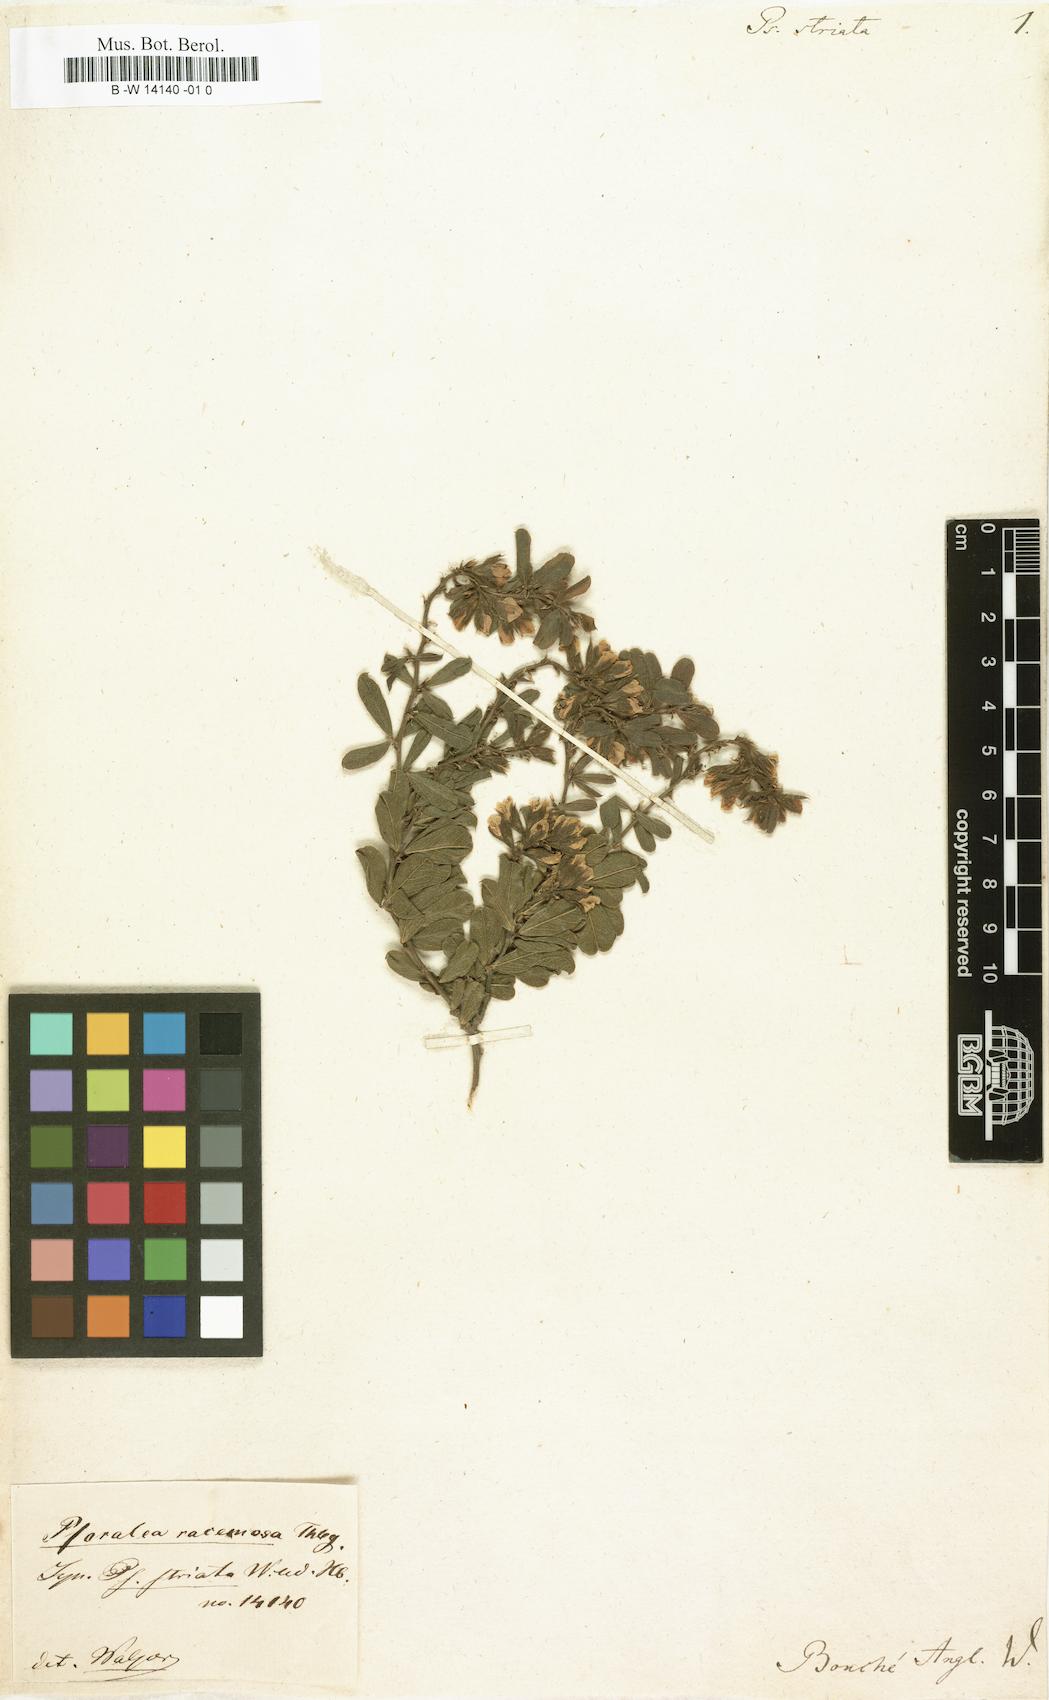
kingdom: Plantae
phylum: Tracheophyta
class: Magnoliopsida
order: Fabales
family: Fabaceae
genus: Psoralea
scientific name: Psoralea striata
